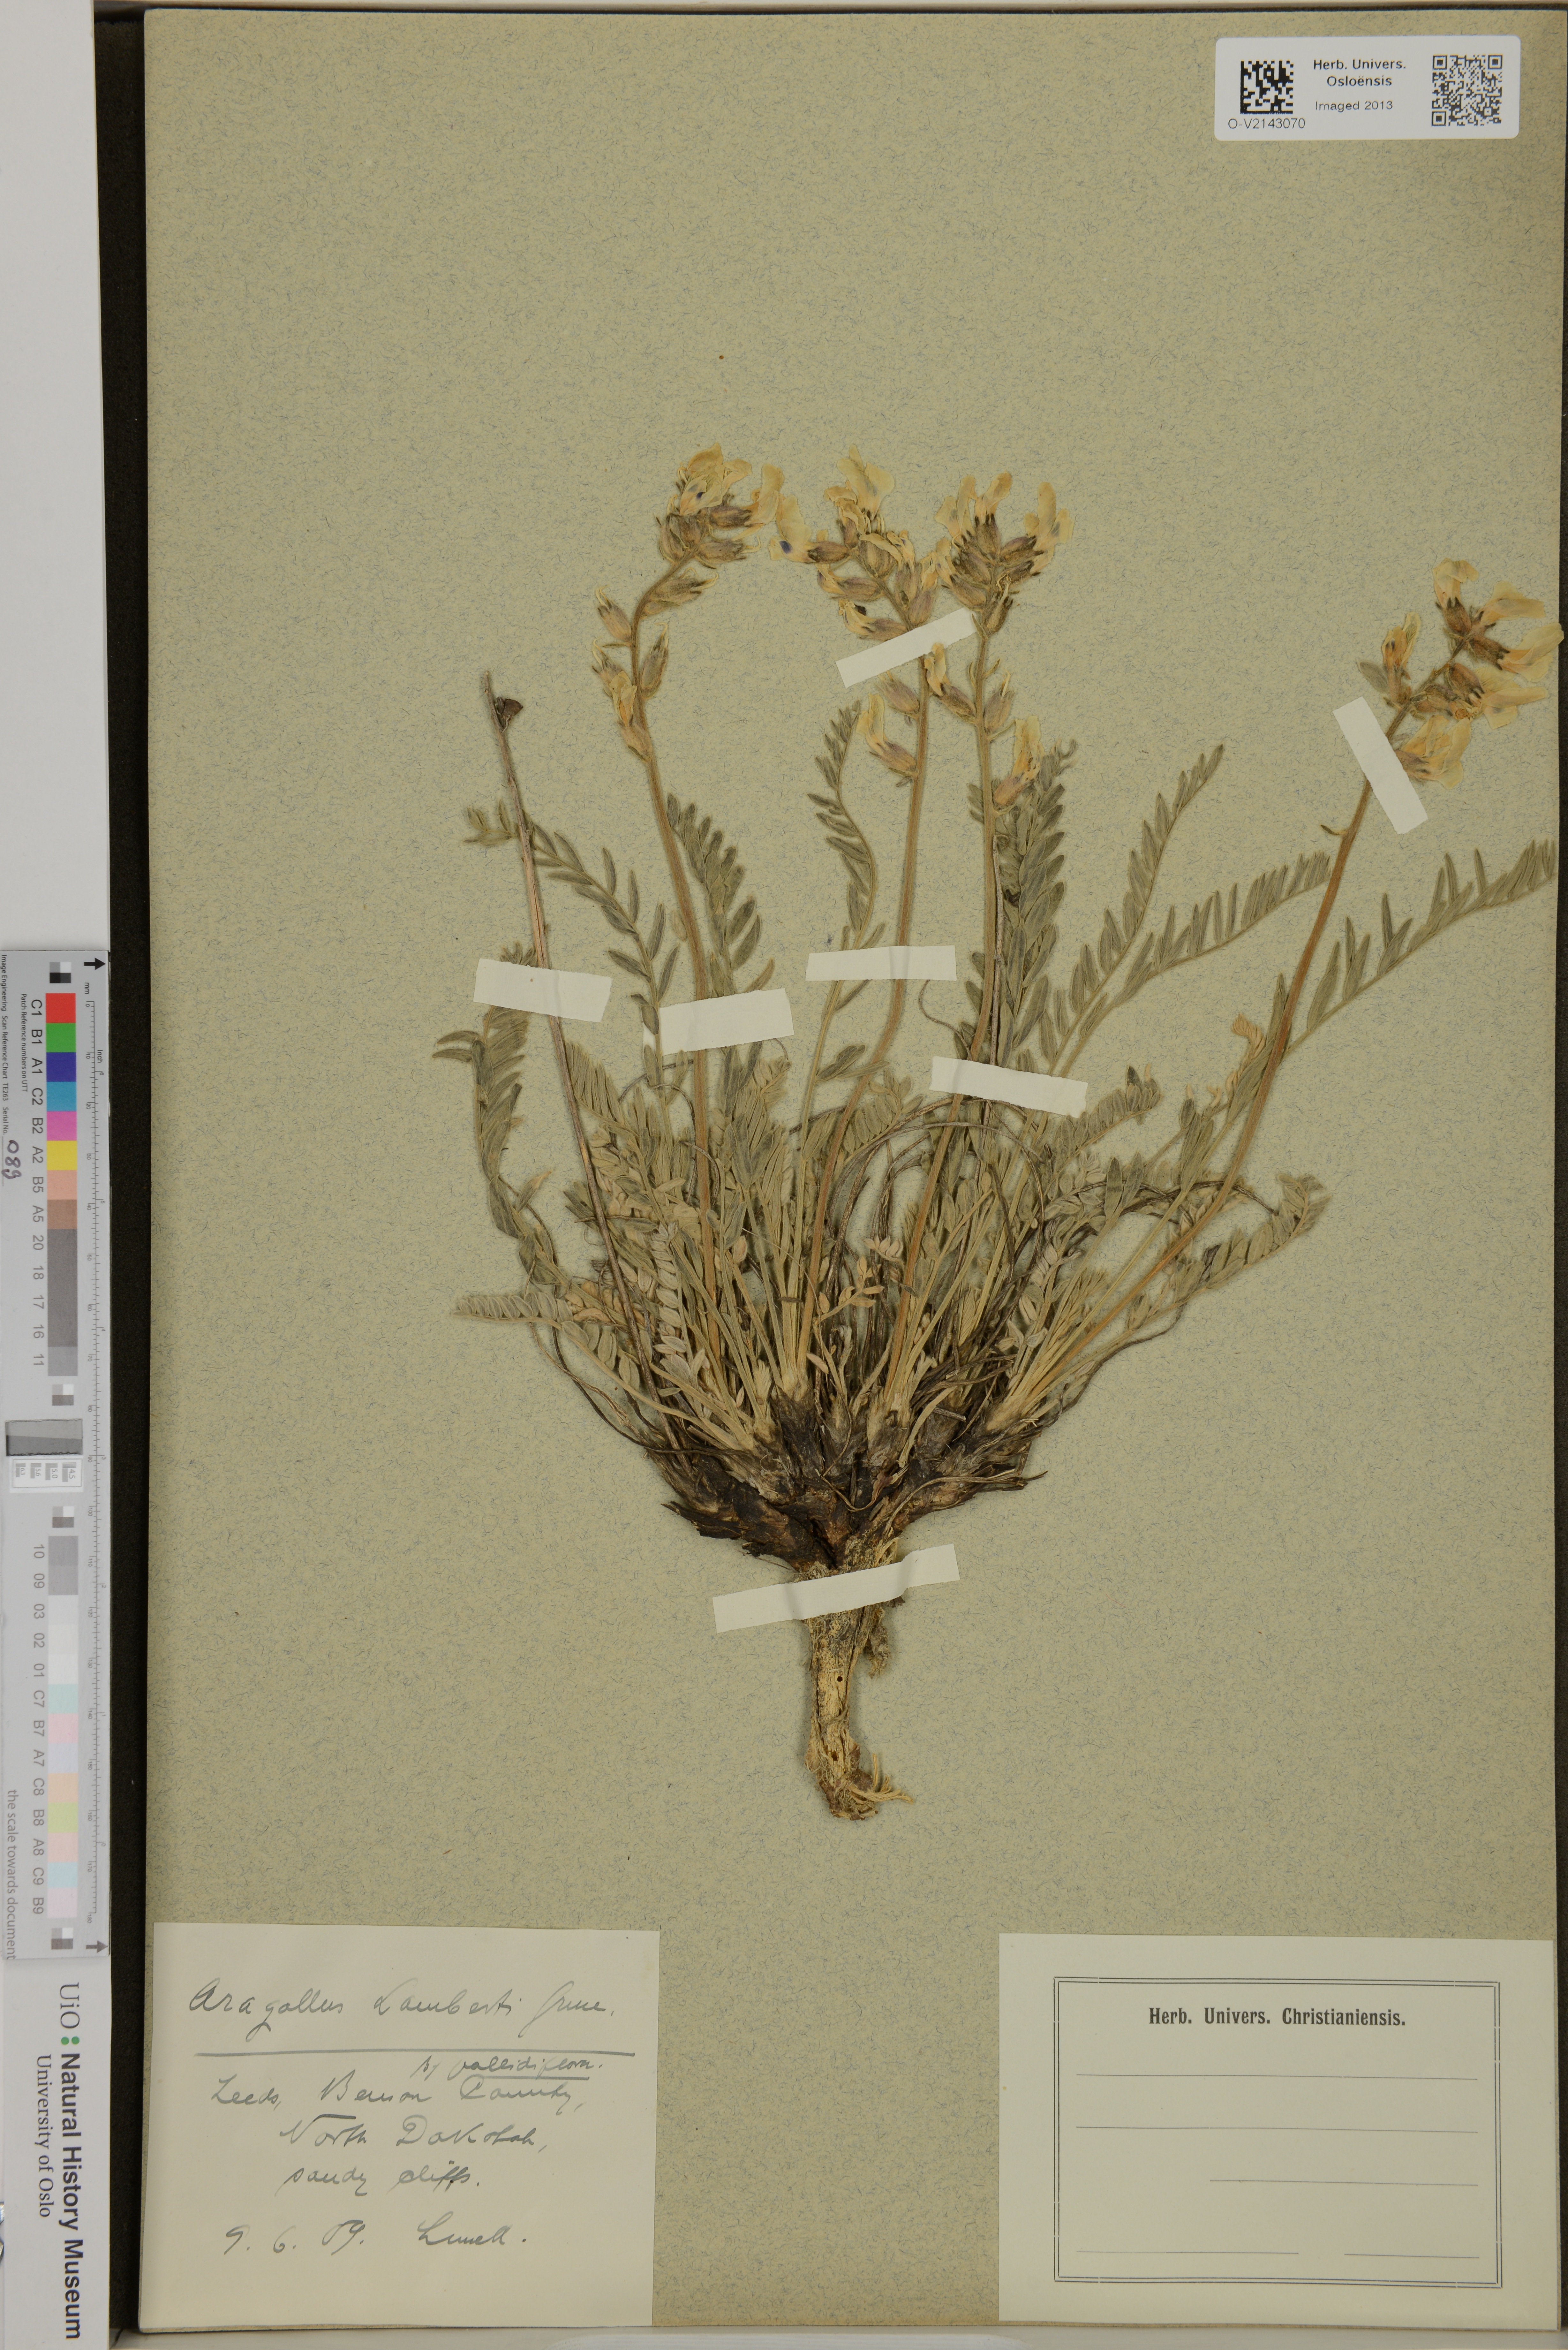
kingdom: Plantae
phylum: Tracheophyta
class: Magnoliopsida
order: Fabales
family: Fabaceae
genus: Oxytropis
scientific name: Oxytropis lambertii
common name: Purple locoweed
